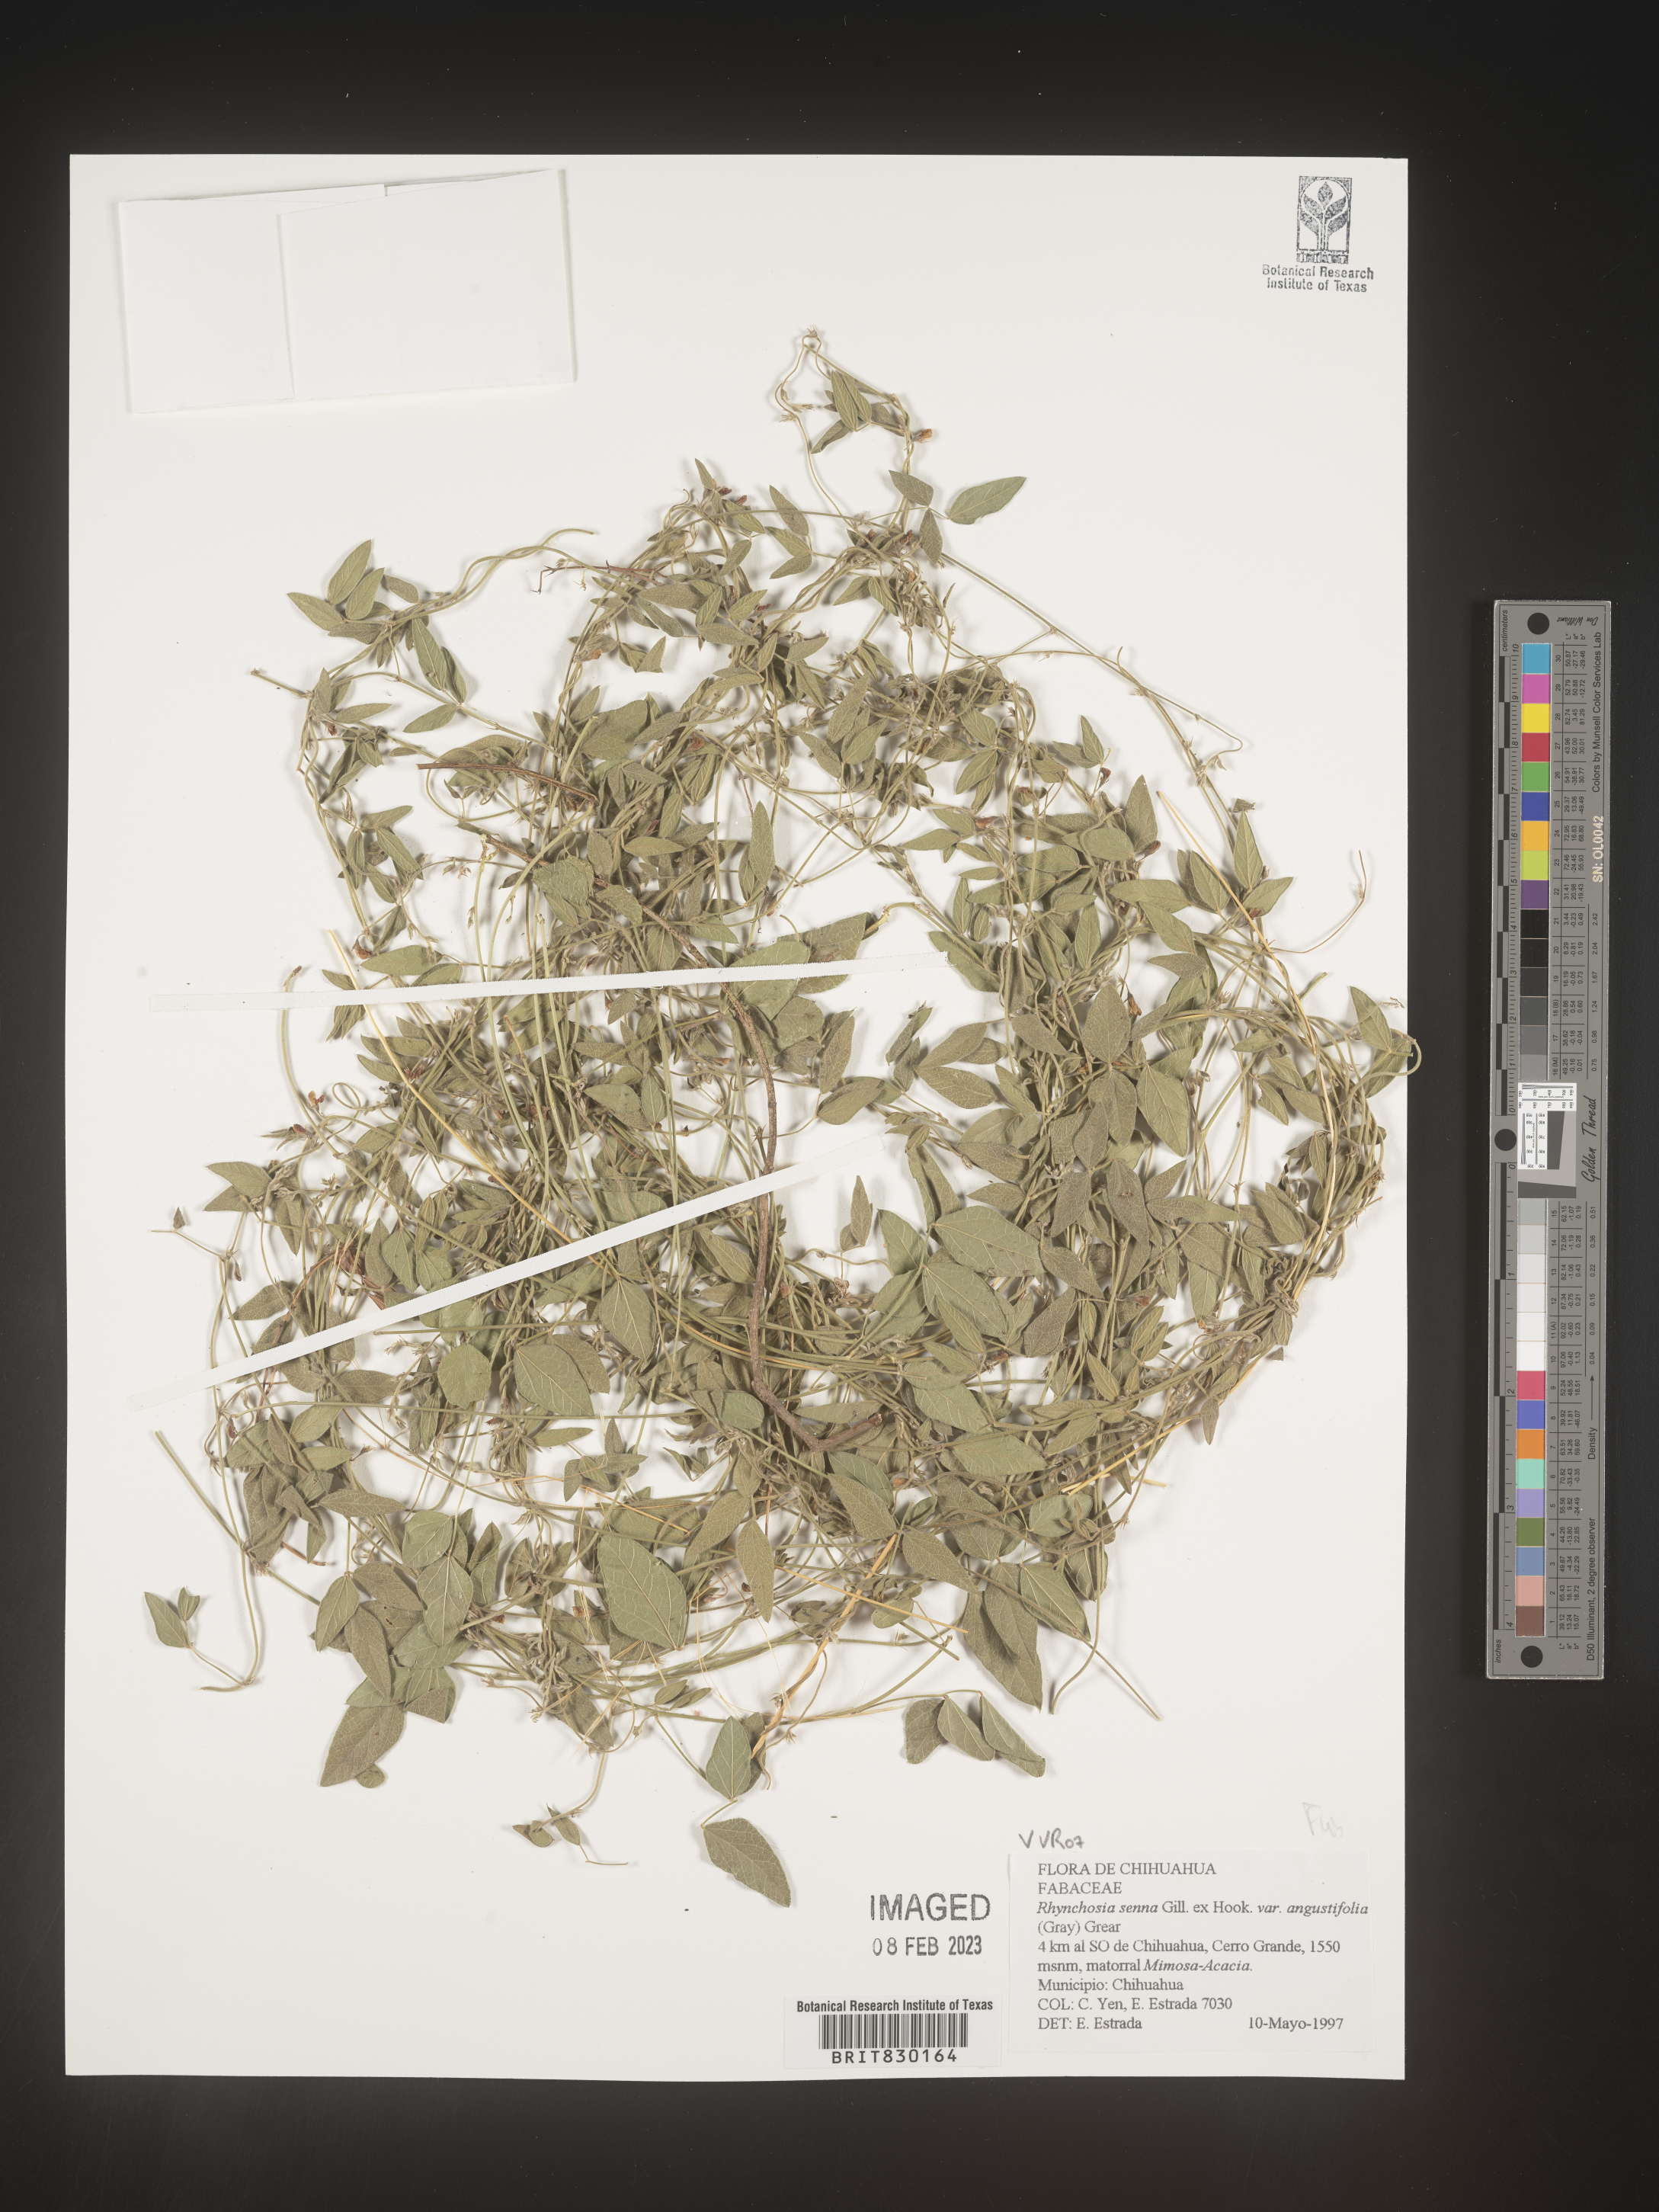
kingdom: Plantae
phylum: Tracheophyta
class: Magnoliopsida
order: Fabales
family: Fabaceae
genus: Rhynchosia
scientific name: Rhynchosia
